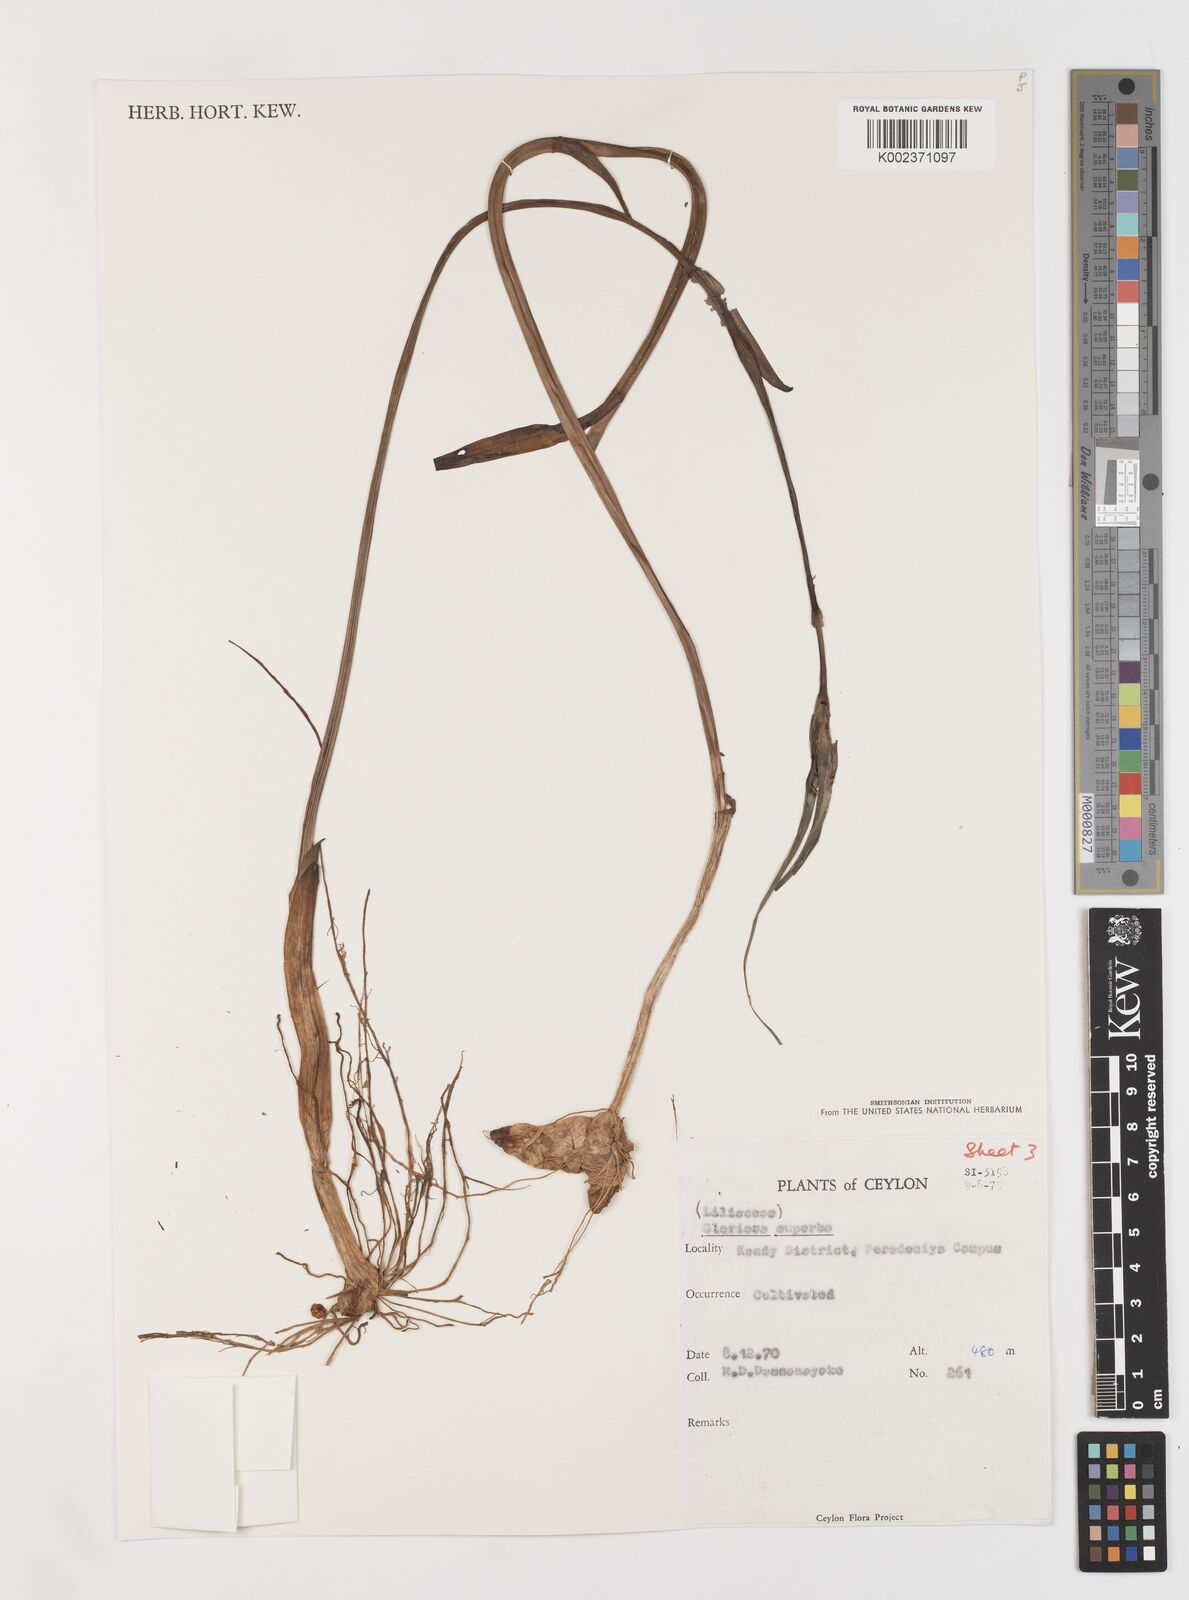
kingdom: Plantae
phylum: Tracheophyta
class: Liliopsida
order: Liliales
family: Colchicaceae
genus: Gloriosa
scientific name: Gloriosa superba
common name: Flame lily
